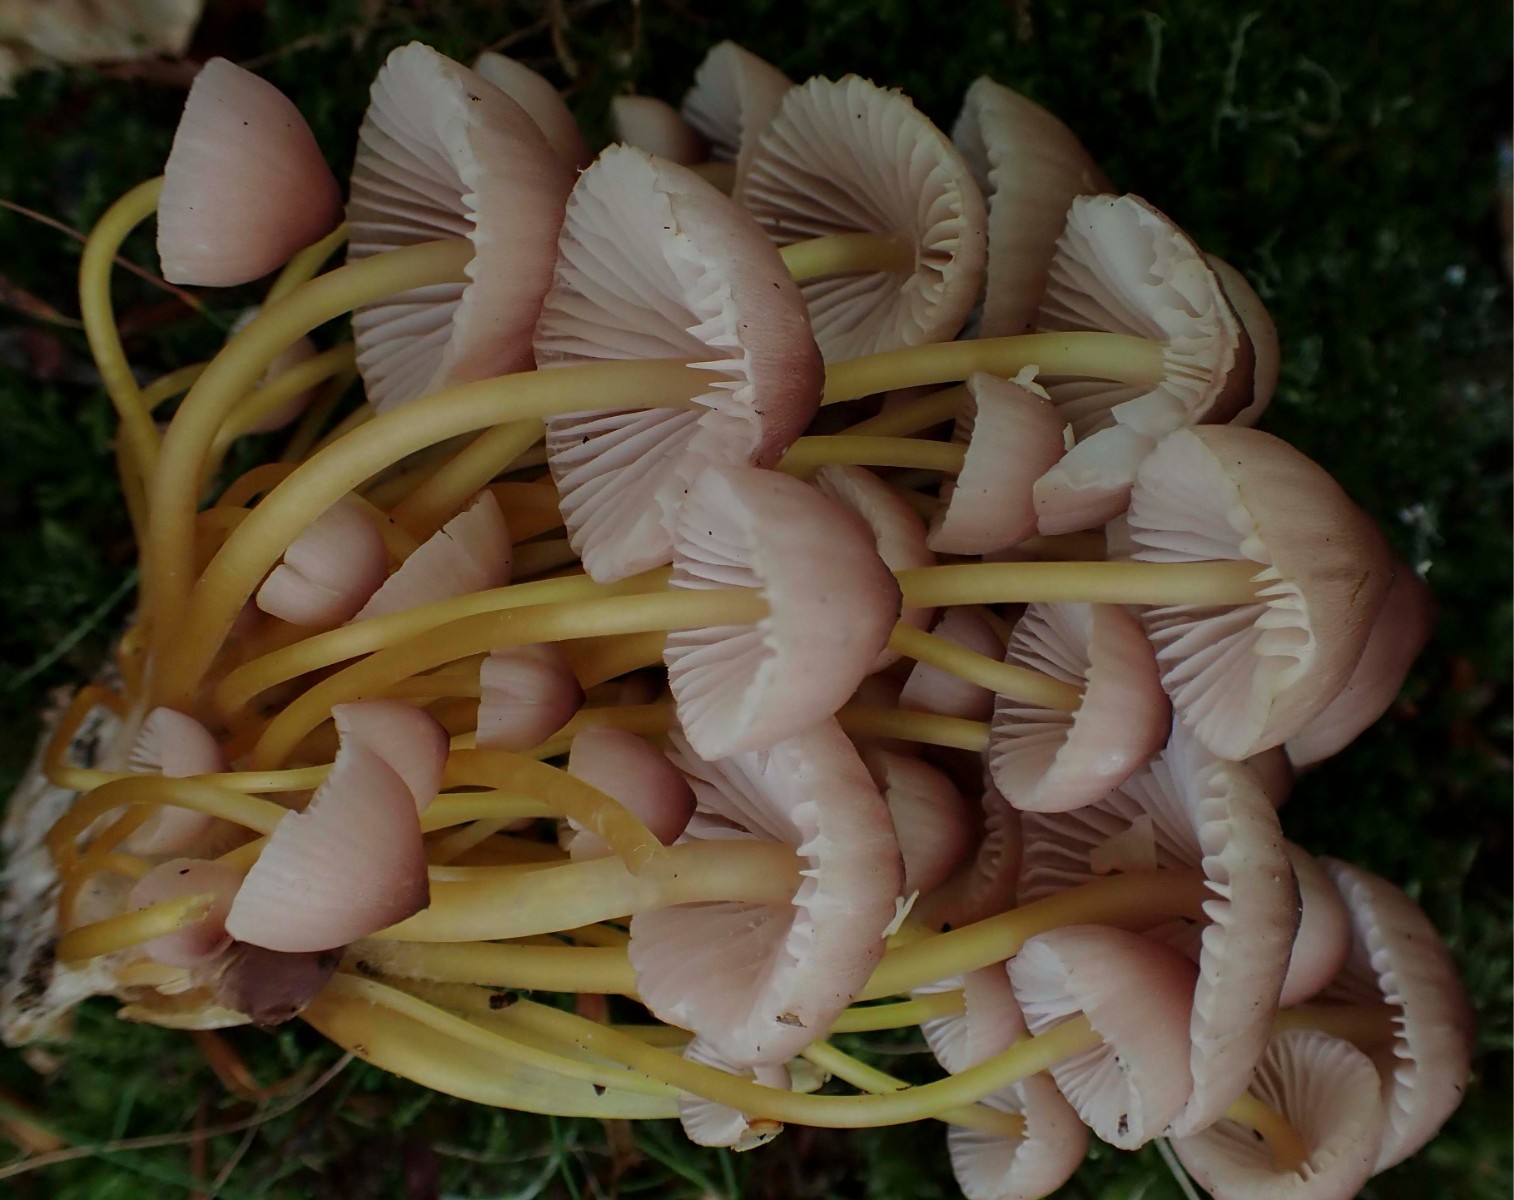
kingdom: Fungi
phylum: Basidiomycota
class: Agaricomycetes
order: Agaricales
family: Mycenaceae
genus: Mycena
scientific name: Mycena renati
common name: smuk huesvamp
